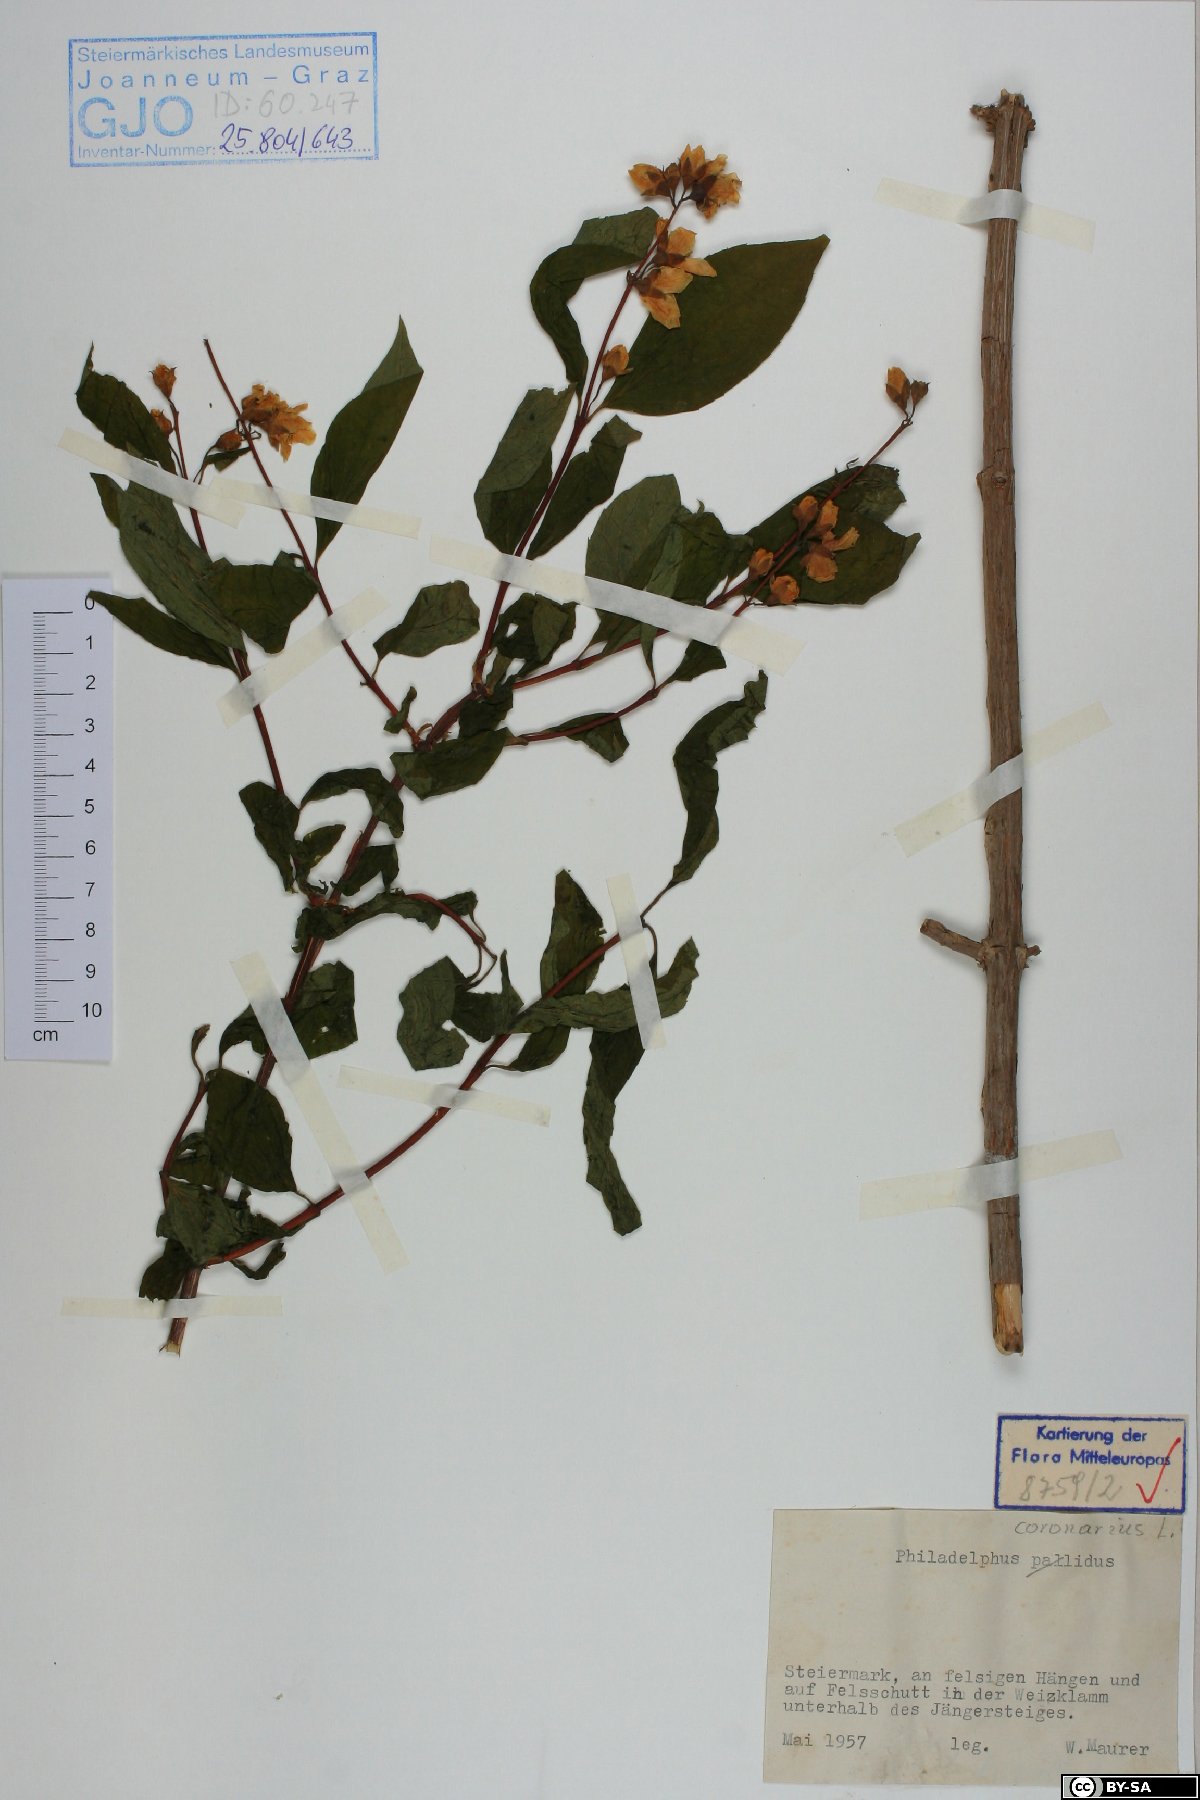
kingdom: Plantae
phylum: Tracheophyta
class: Magnoliopsida
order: Cornales
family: Hydrangeaceae
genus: Philadelphus
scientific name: Philadelphus coronarius
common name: Mock orange
